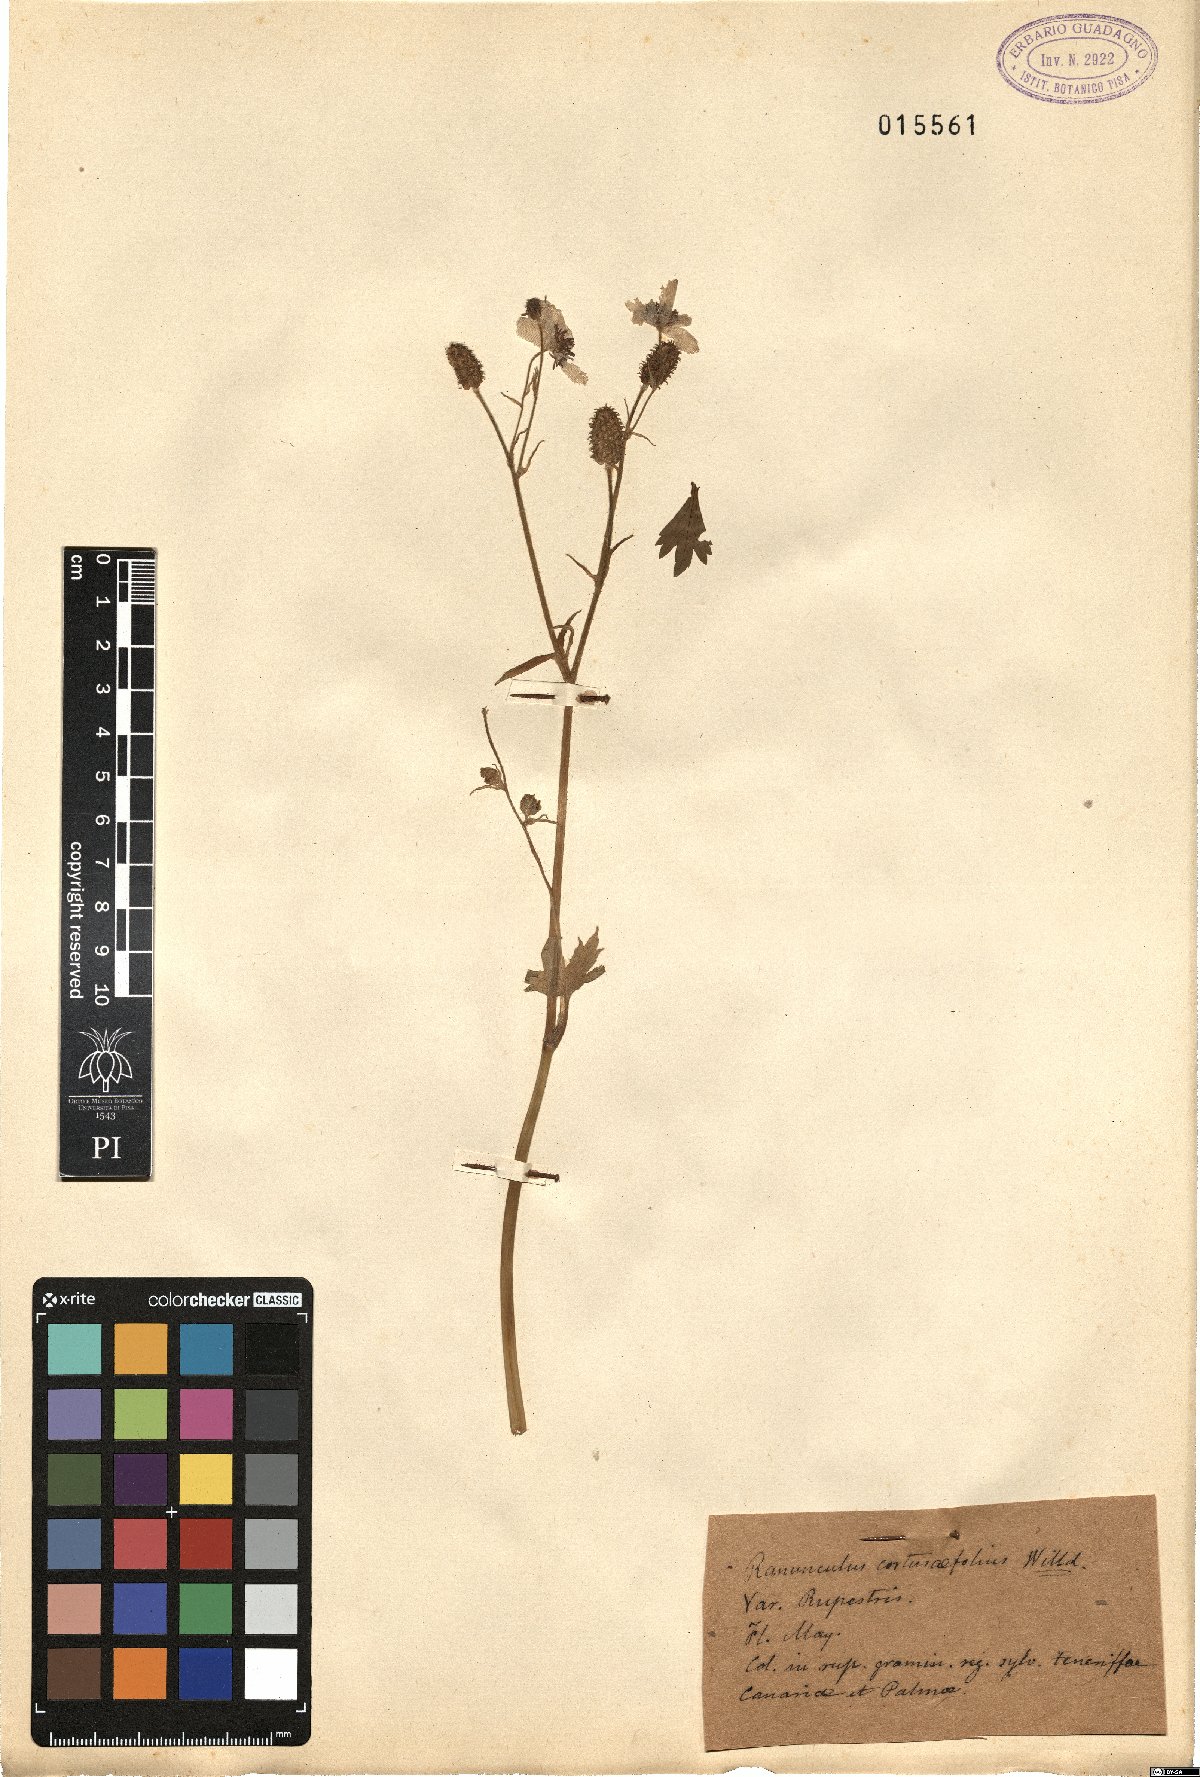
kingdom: Plantae
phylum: Tracheophyta
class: Magnoliopsida
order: Ranunculales
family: Ranunculaceae
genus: Ranunculus
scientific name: Ranunculus cortusifolius
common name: Azores buttercup
